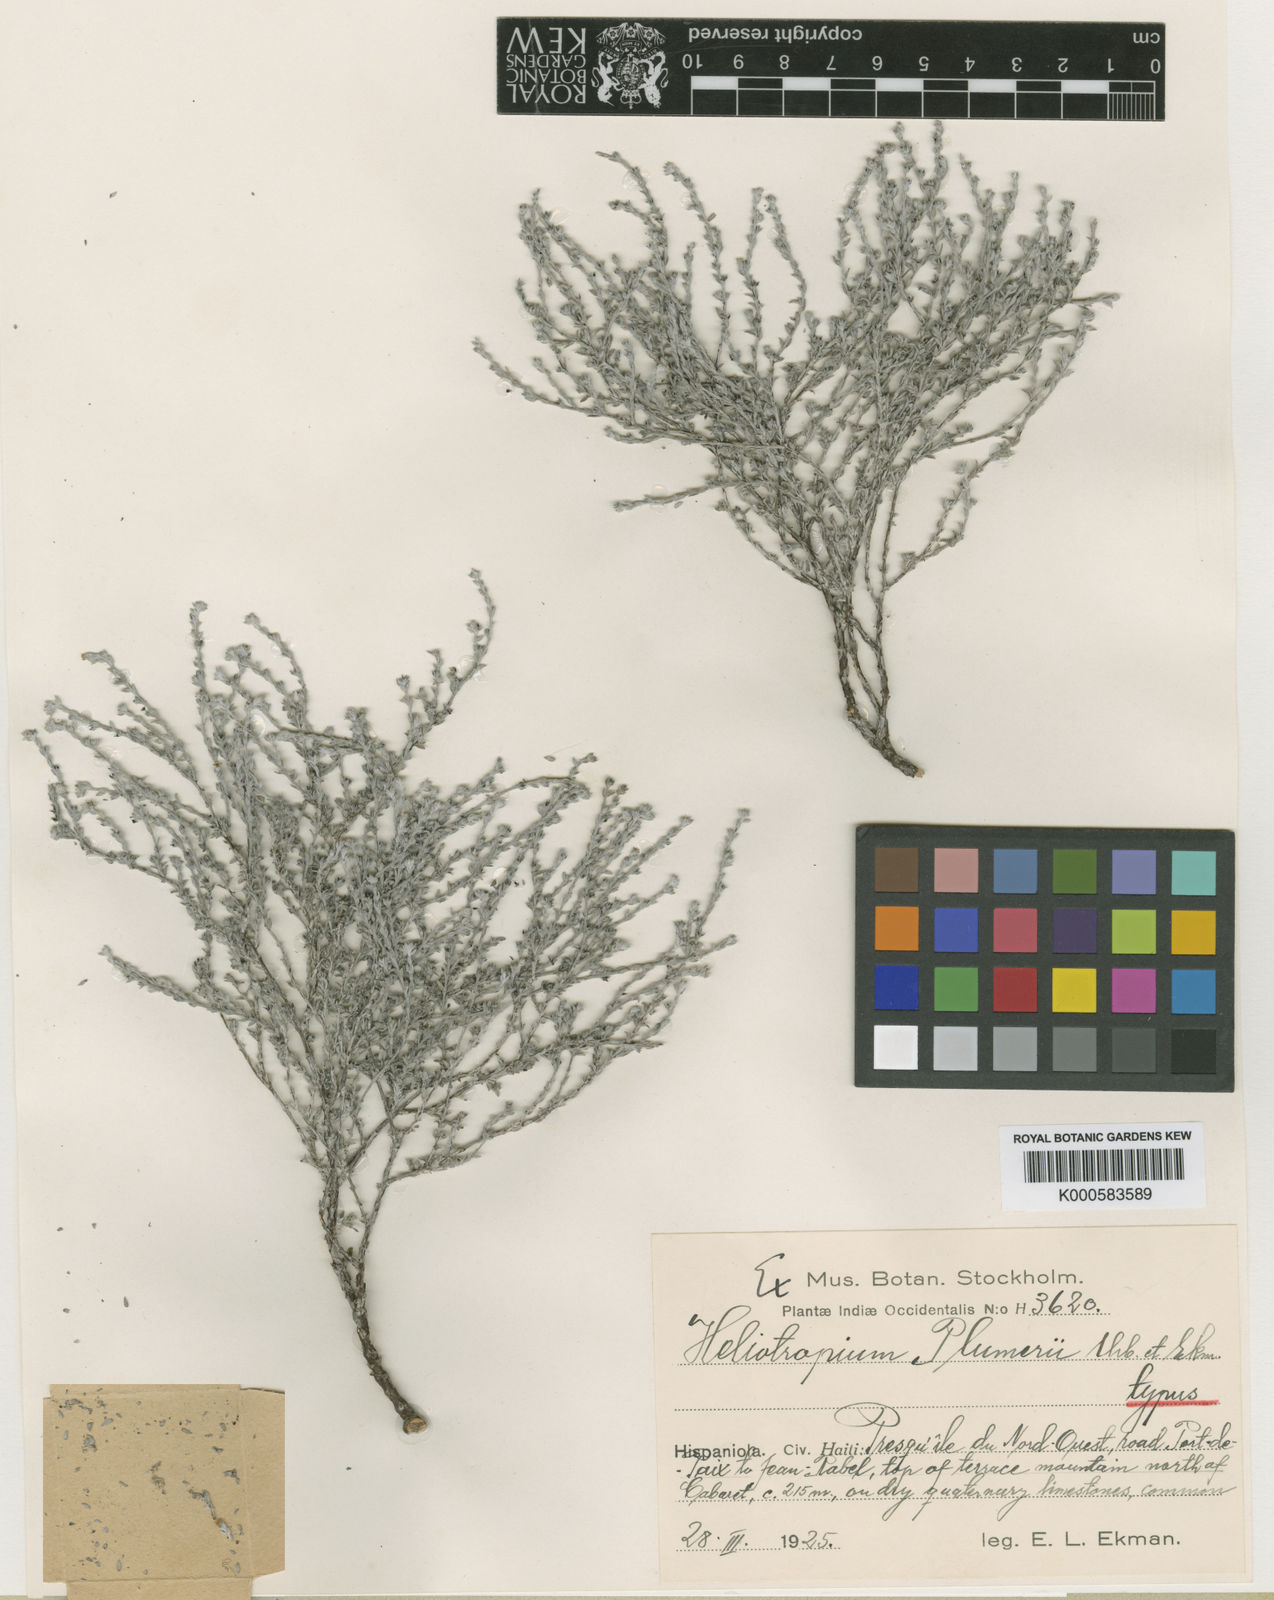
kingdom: Plantae
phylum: Tracheophyta
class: Magnoliopsida
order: Boraginales
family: Heliotropiaceae
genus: Euploca
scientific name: Euploca microphylla
